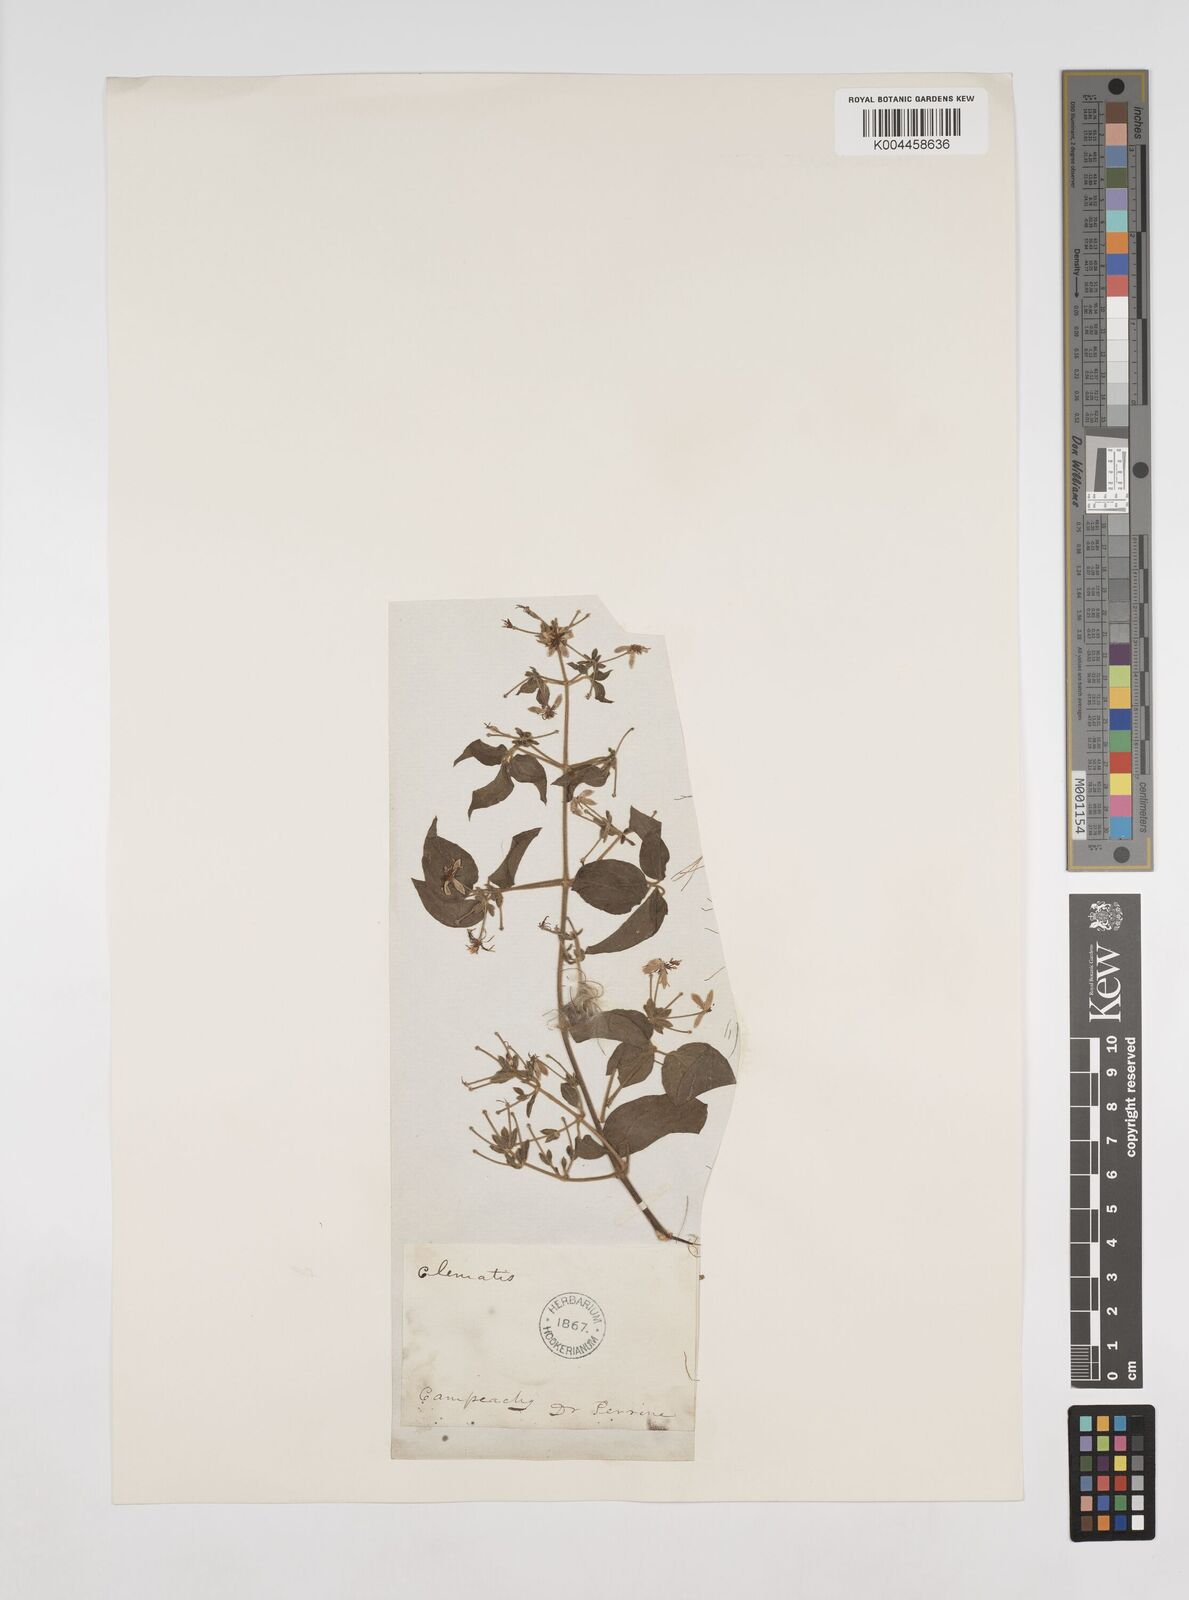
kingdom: Plantae
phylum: Tracheophyta
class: Magnoliopsida
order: Ranunculales
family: Ranunculaceae
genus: Clematis
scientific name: Clematis dioica
